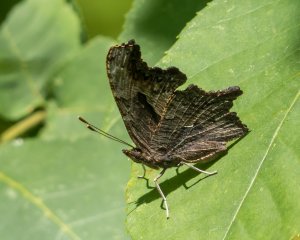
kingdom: Animalia
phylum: Arthropoda
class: Insecta
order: Lepidoptera
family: Nymphalidae
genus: Polygonia
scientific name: Polygonia progne
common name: Gray Comma
